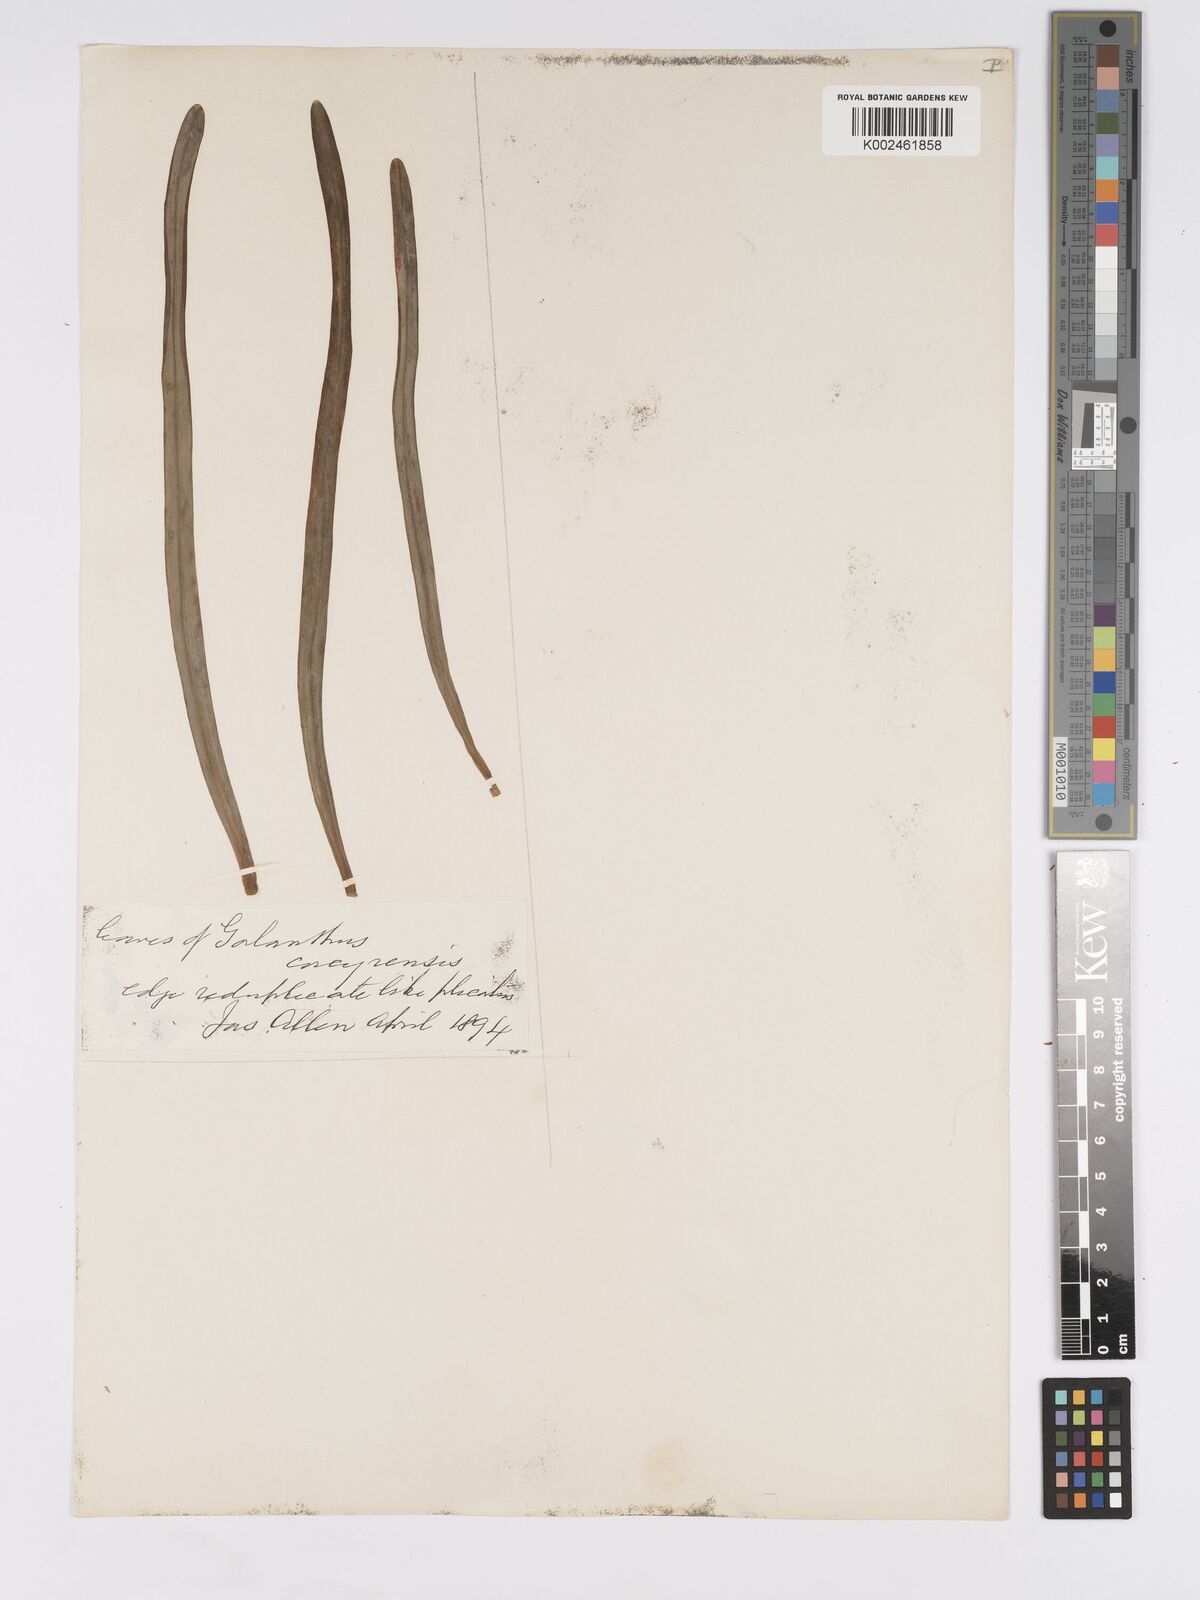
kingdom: Plantae
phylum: Tracheophyta
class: Liliopsida
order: Asparagales
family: Amaryllidaceae
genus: Galanthus
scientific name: Galanthus reginae-olgae
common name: Queen olga's snowdrop
